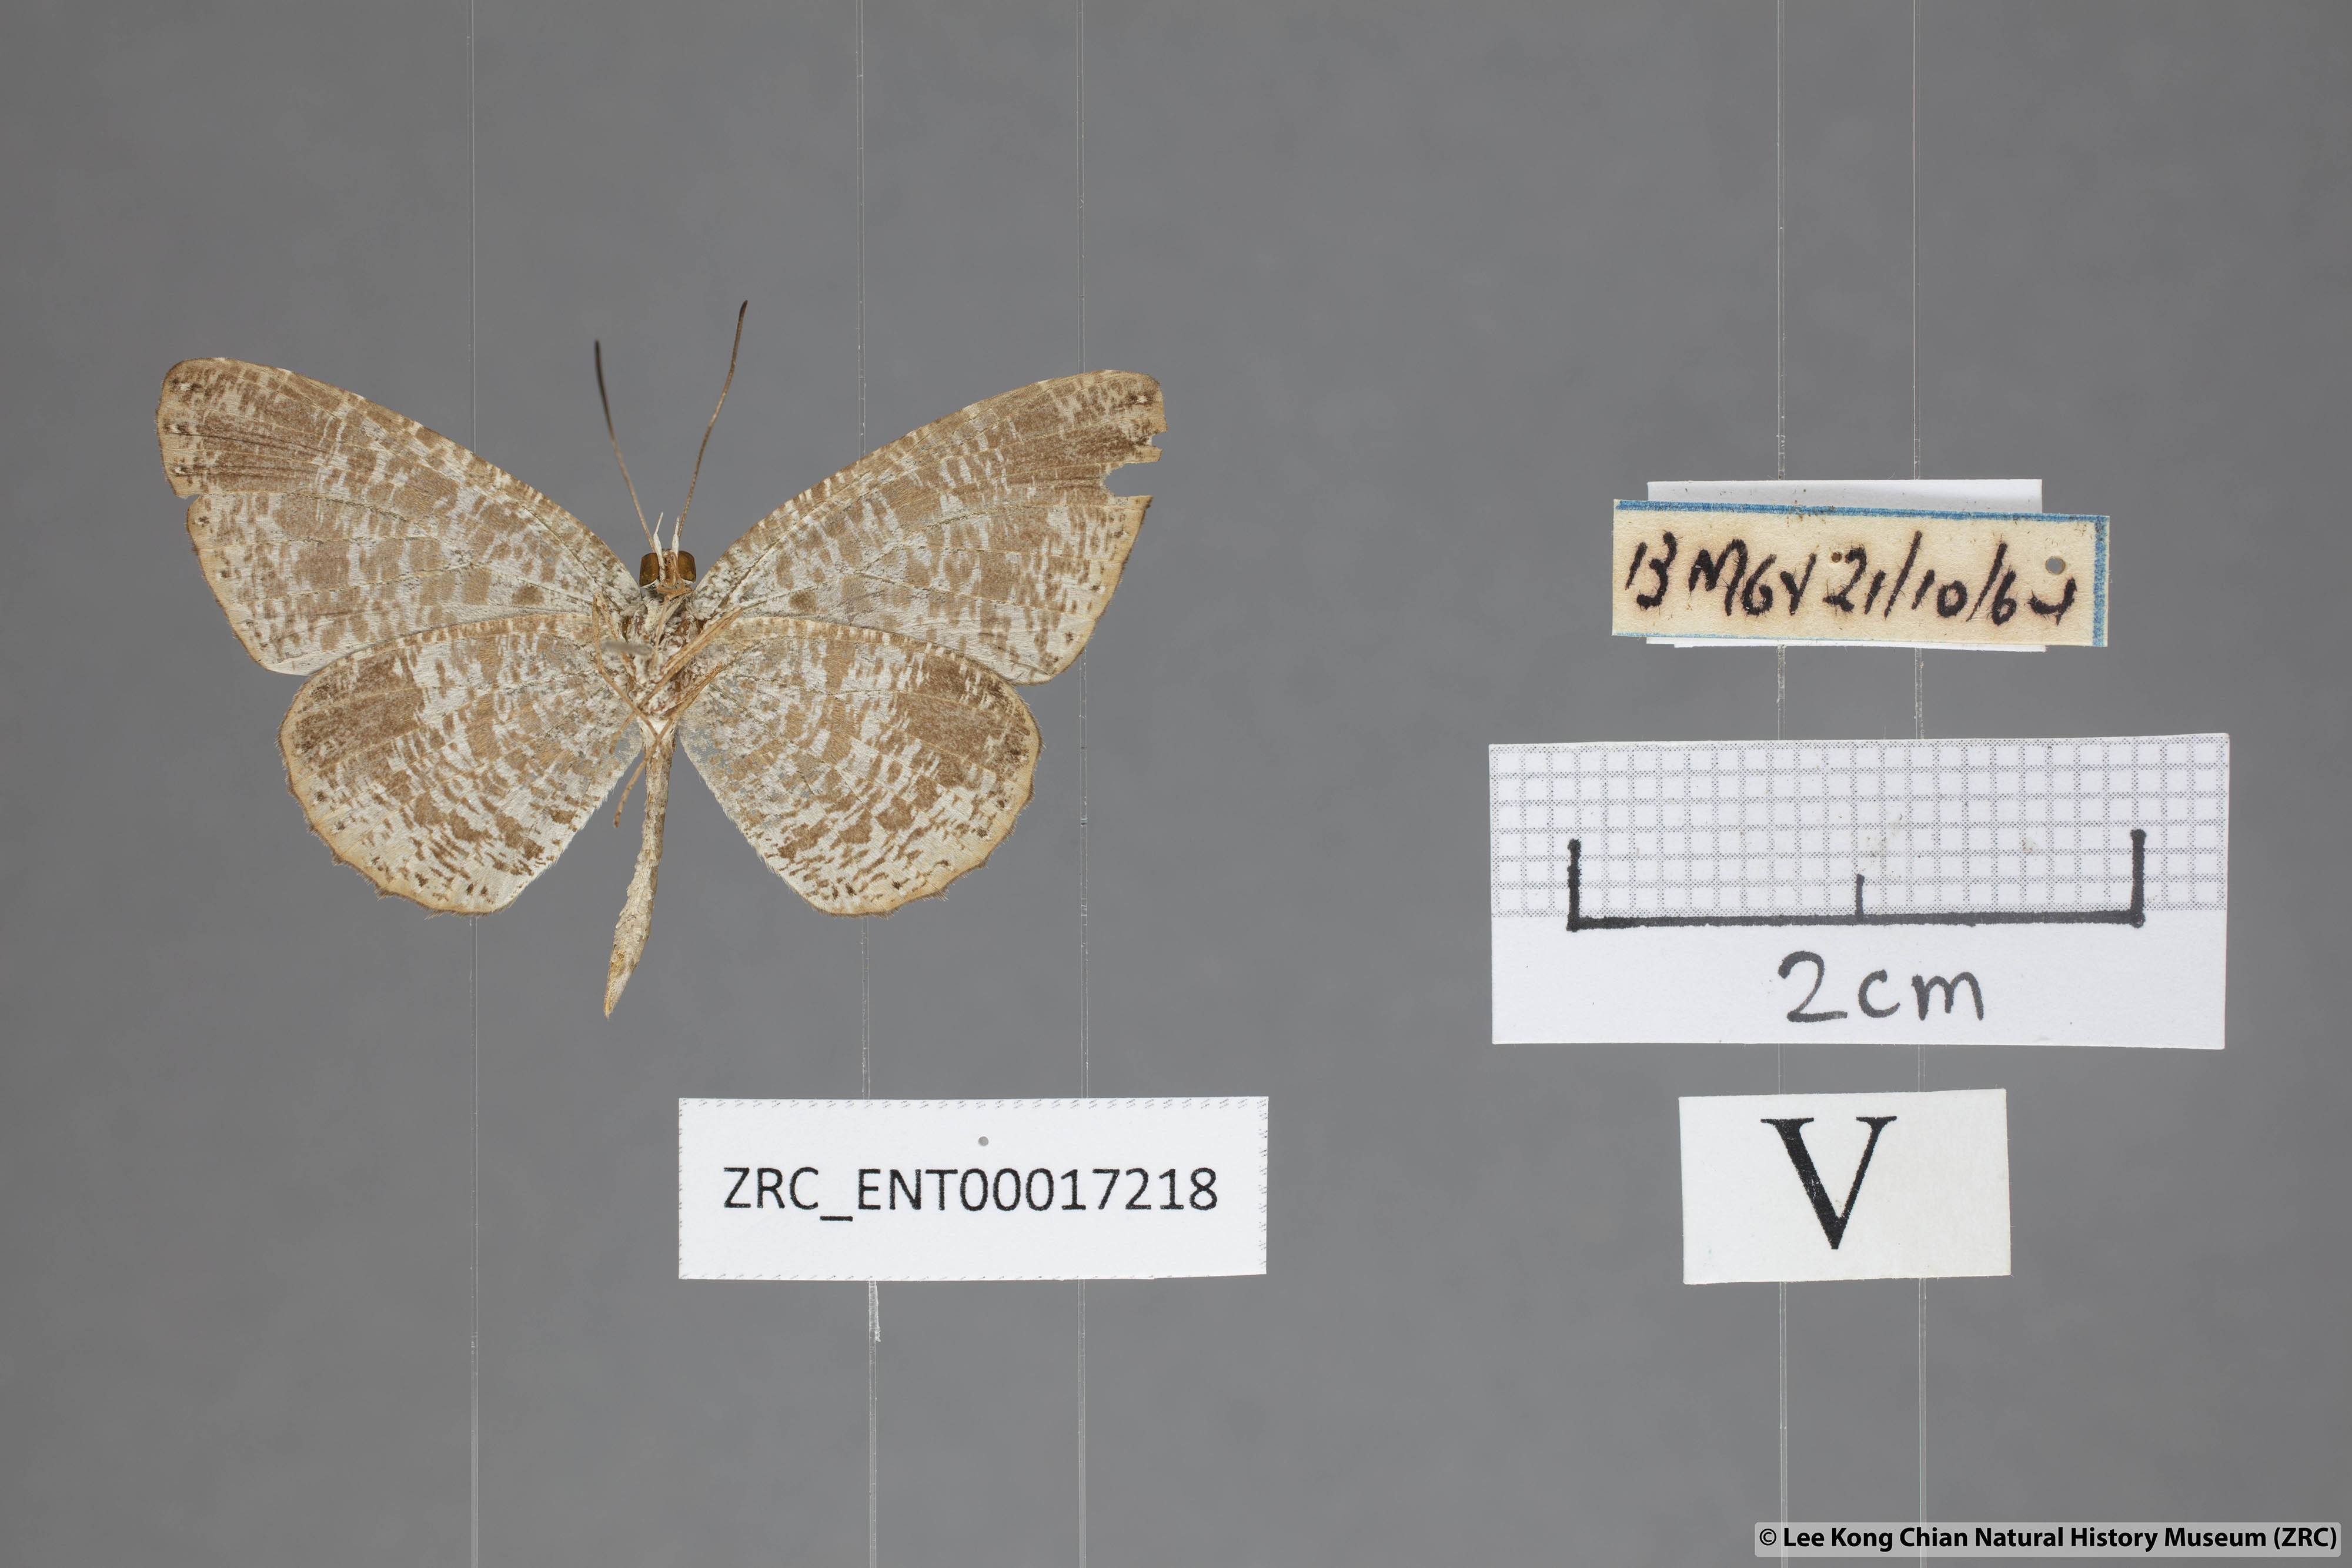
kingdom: Animalia
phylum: Arthropoda
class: Insecta
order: Lepidoptera
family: Lycaenidae
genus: Allotinus
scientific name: Allotinus borneensis
